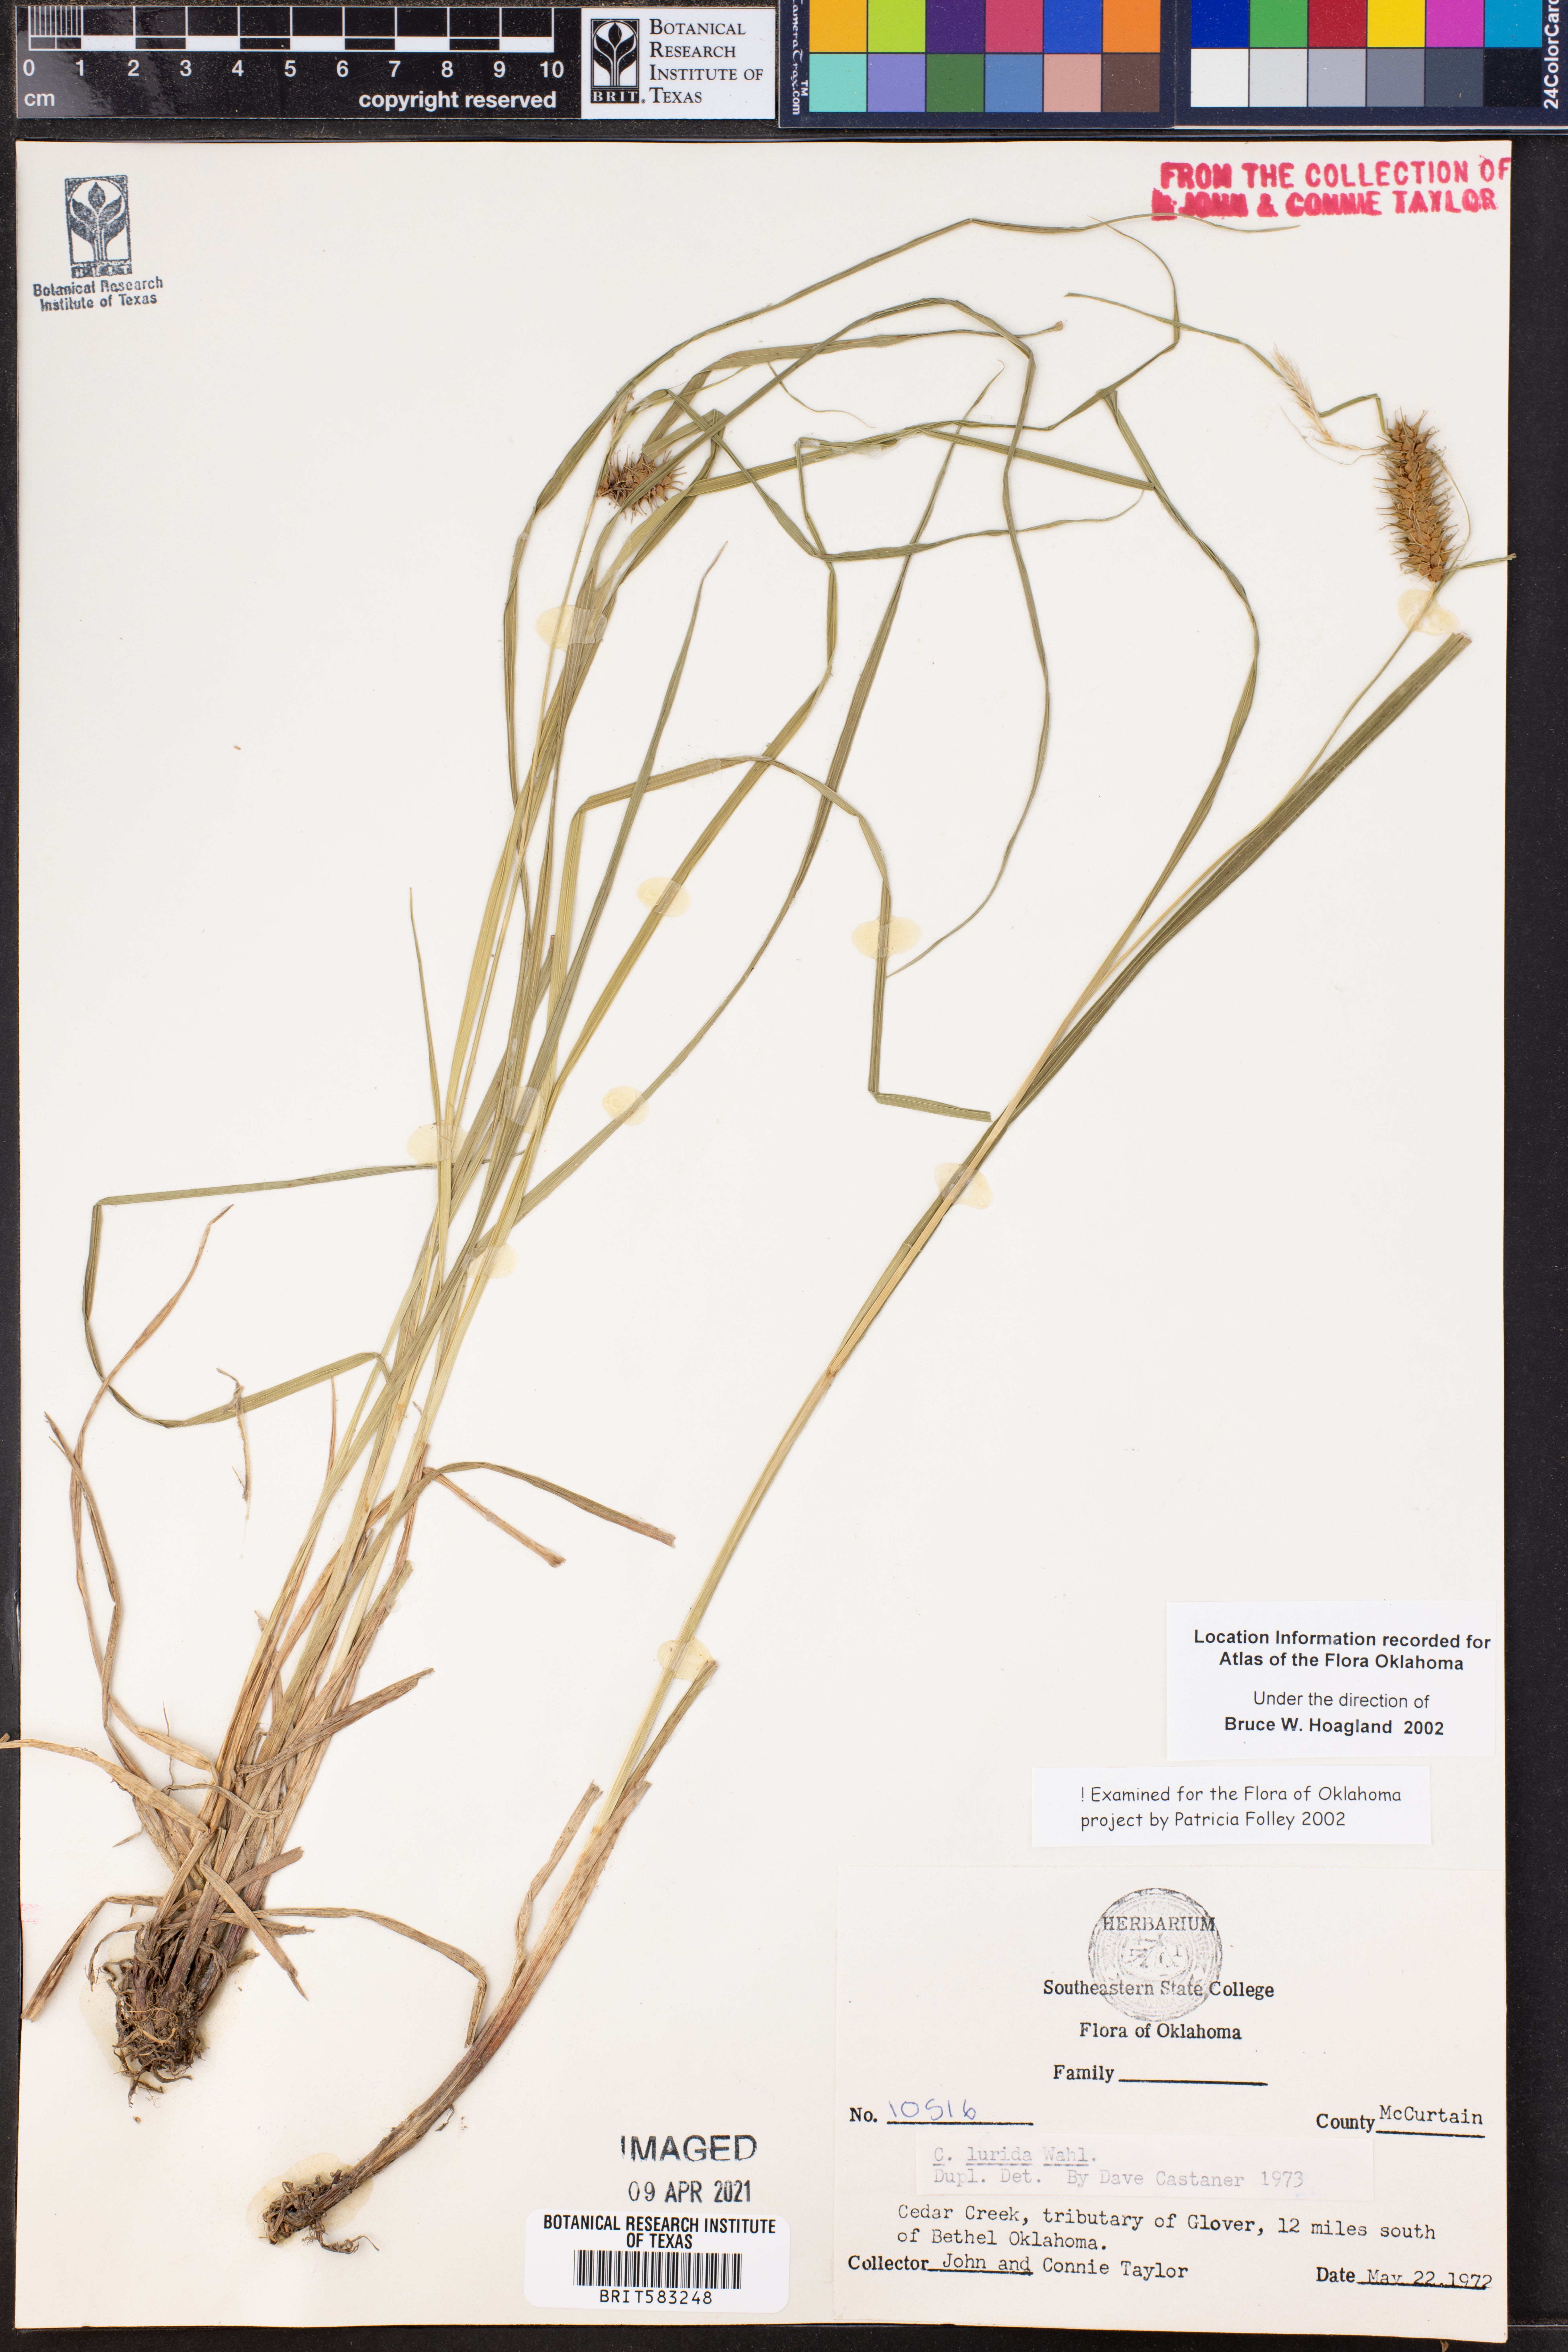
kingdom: Plantae
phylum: Tracheophyta
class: Liliopsida
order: Poales
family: Cyperaceae
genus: Carex
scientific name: Carex lurida
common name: Sallow sedge
